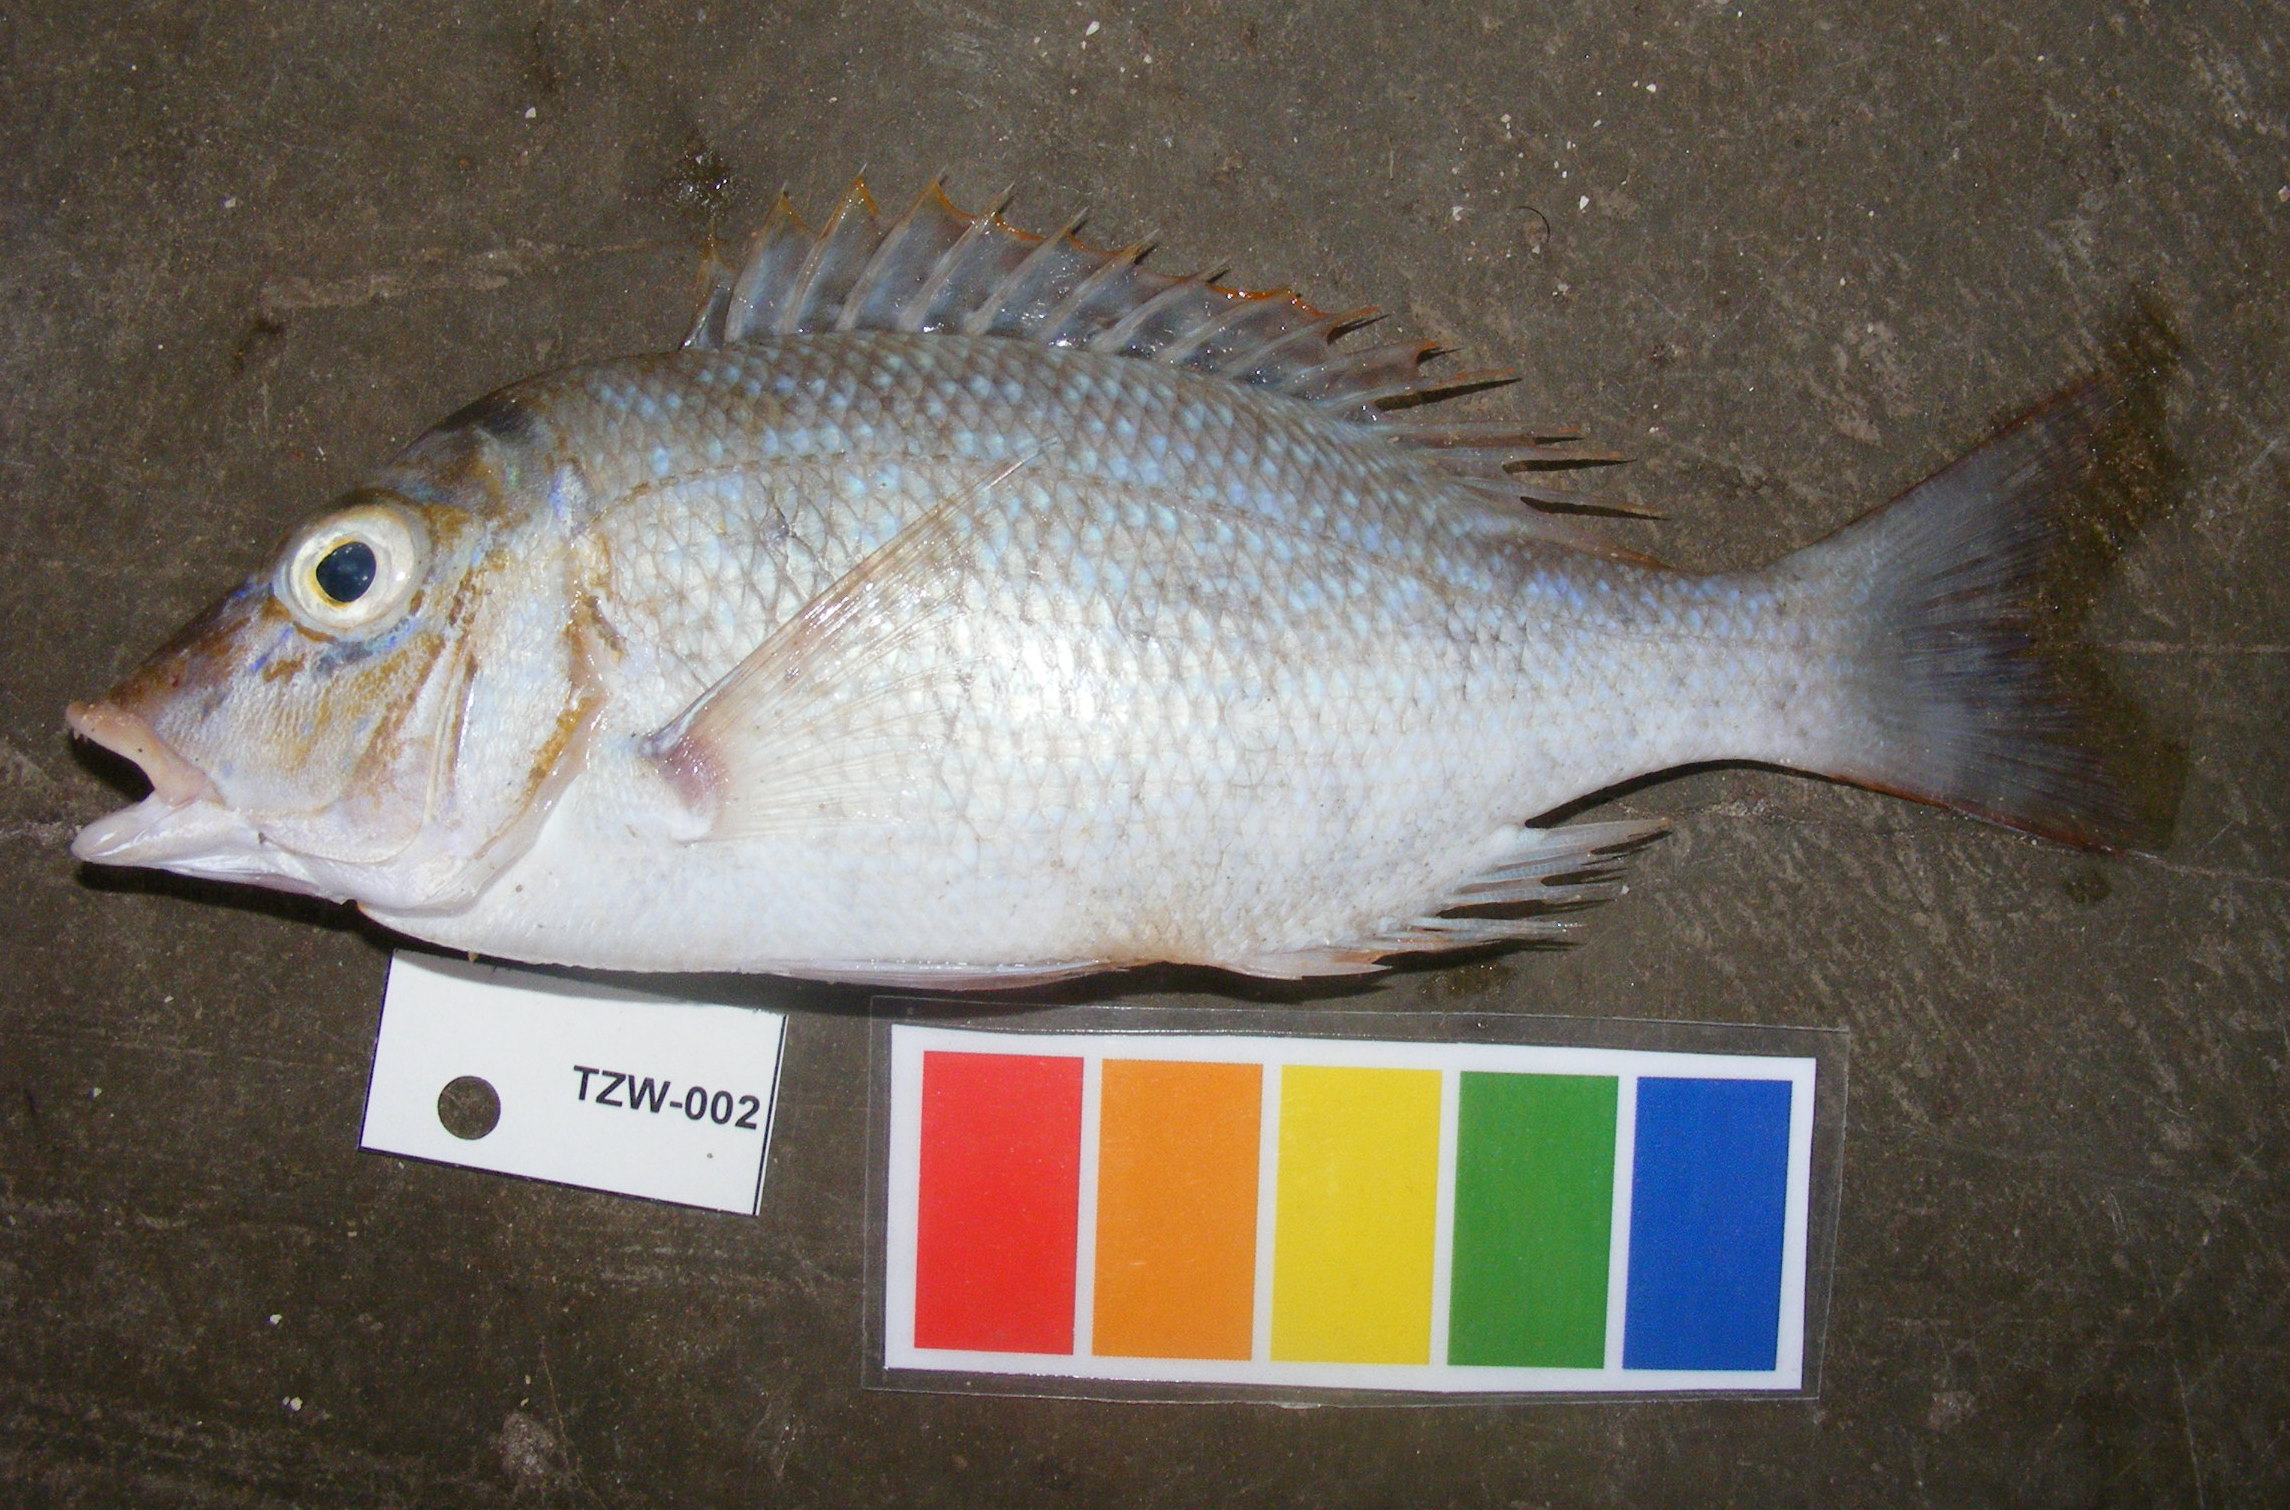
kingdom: Animalia
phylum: Chordata
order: Perciformes
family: Lethrinidae
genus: Lethrinus
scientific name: Lethrinus nebulosus
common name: Spangled emperor
